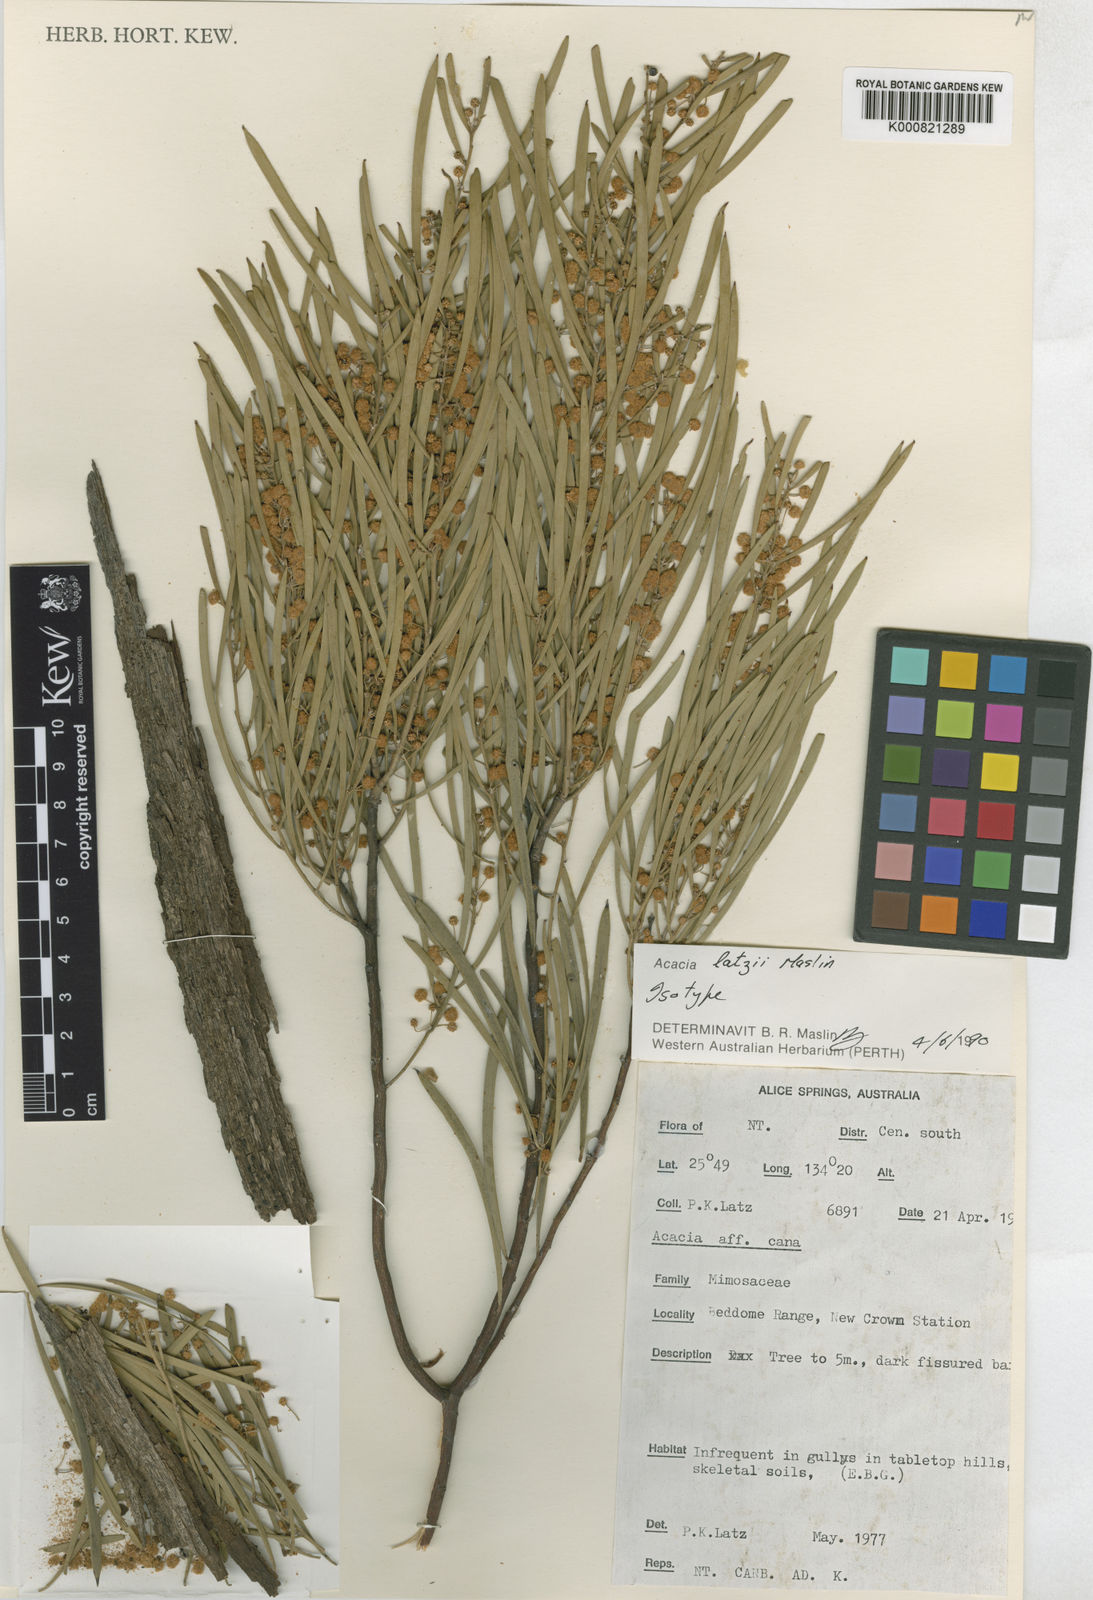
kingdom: Plantae
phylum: Tracheophyta
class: Magnoliopsida
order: Fabales
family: Fabaceae
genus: Acacia
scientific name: Acacia latzii
